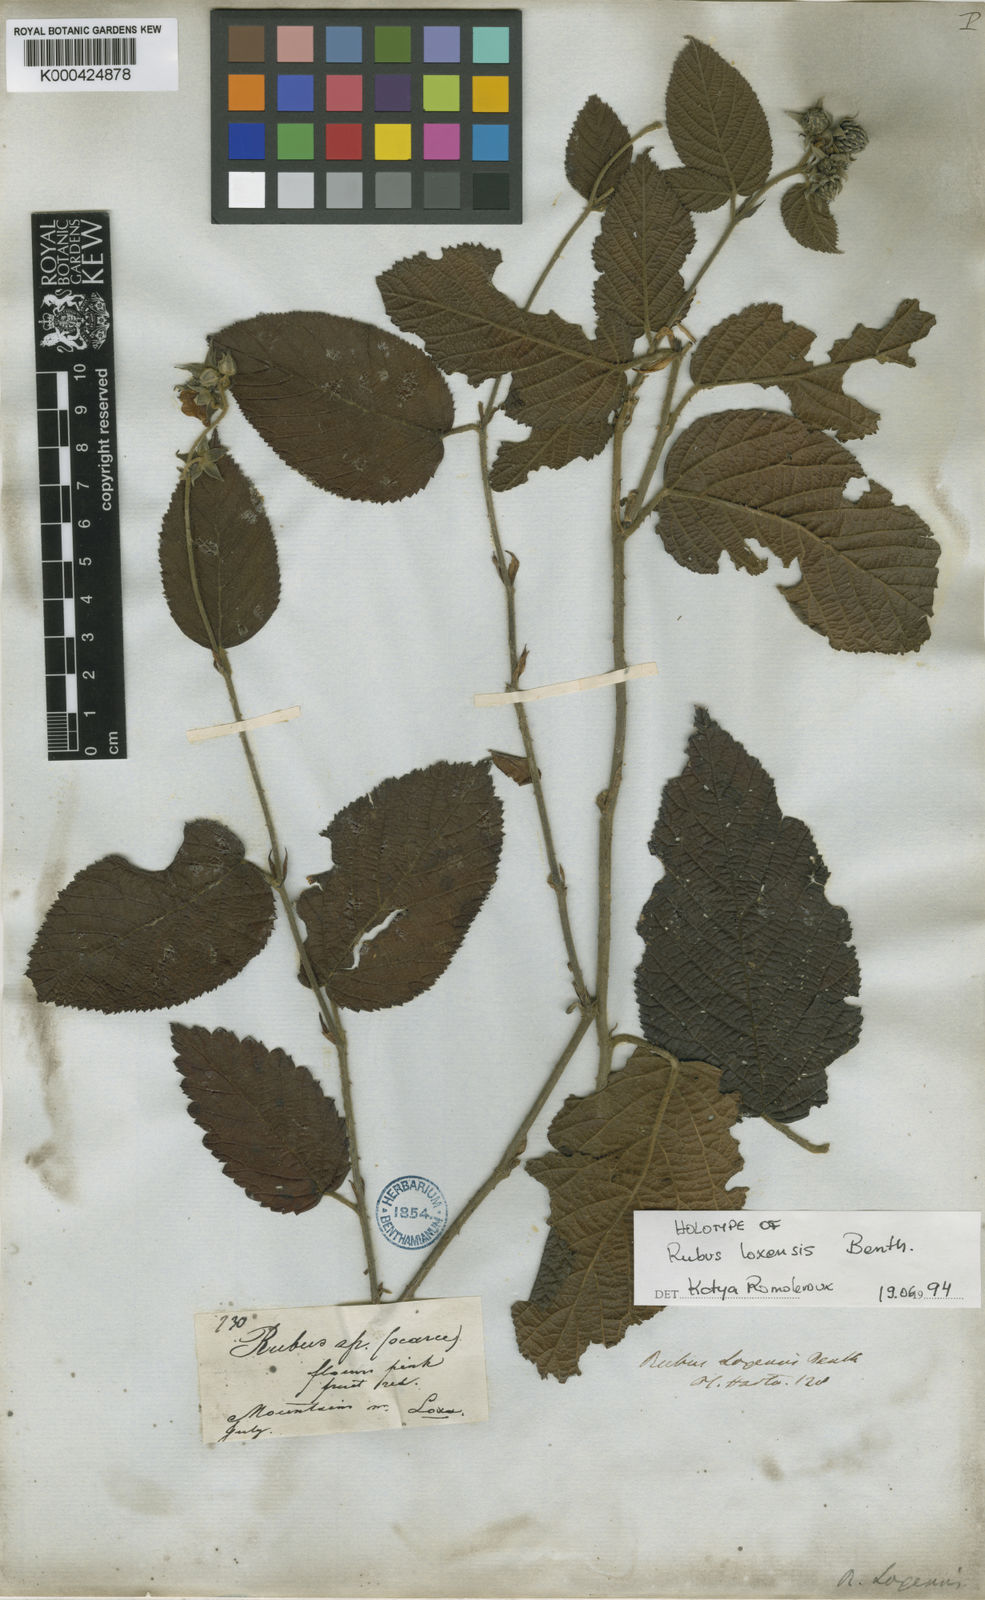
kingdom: Plantae
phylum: Tracheophyta
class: Magnoliopsida
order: Rosales
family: Rosaceae
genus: Rubus
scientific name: Rubus loxensis
